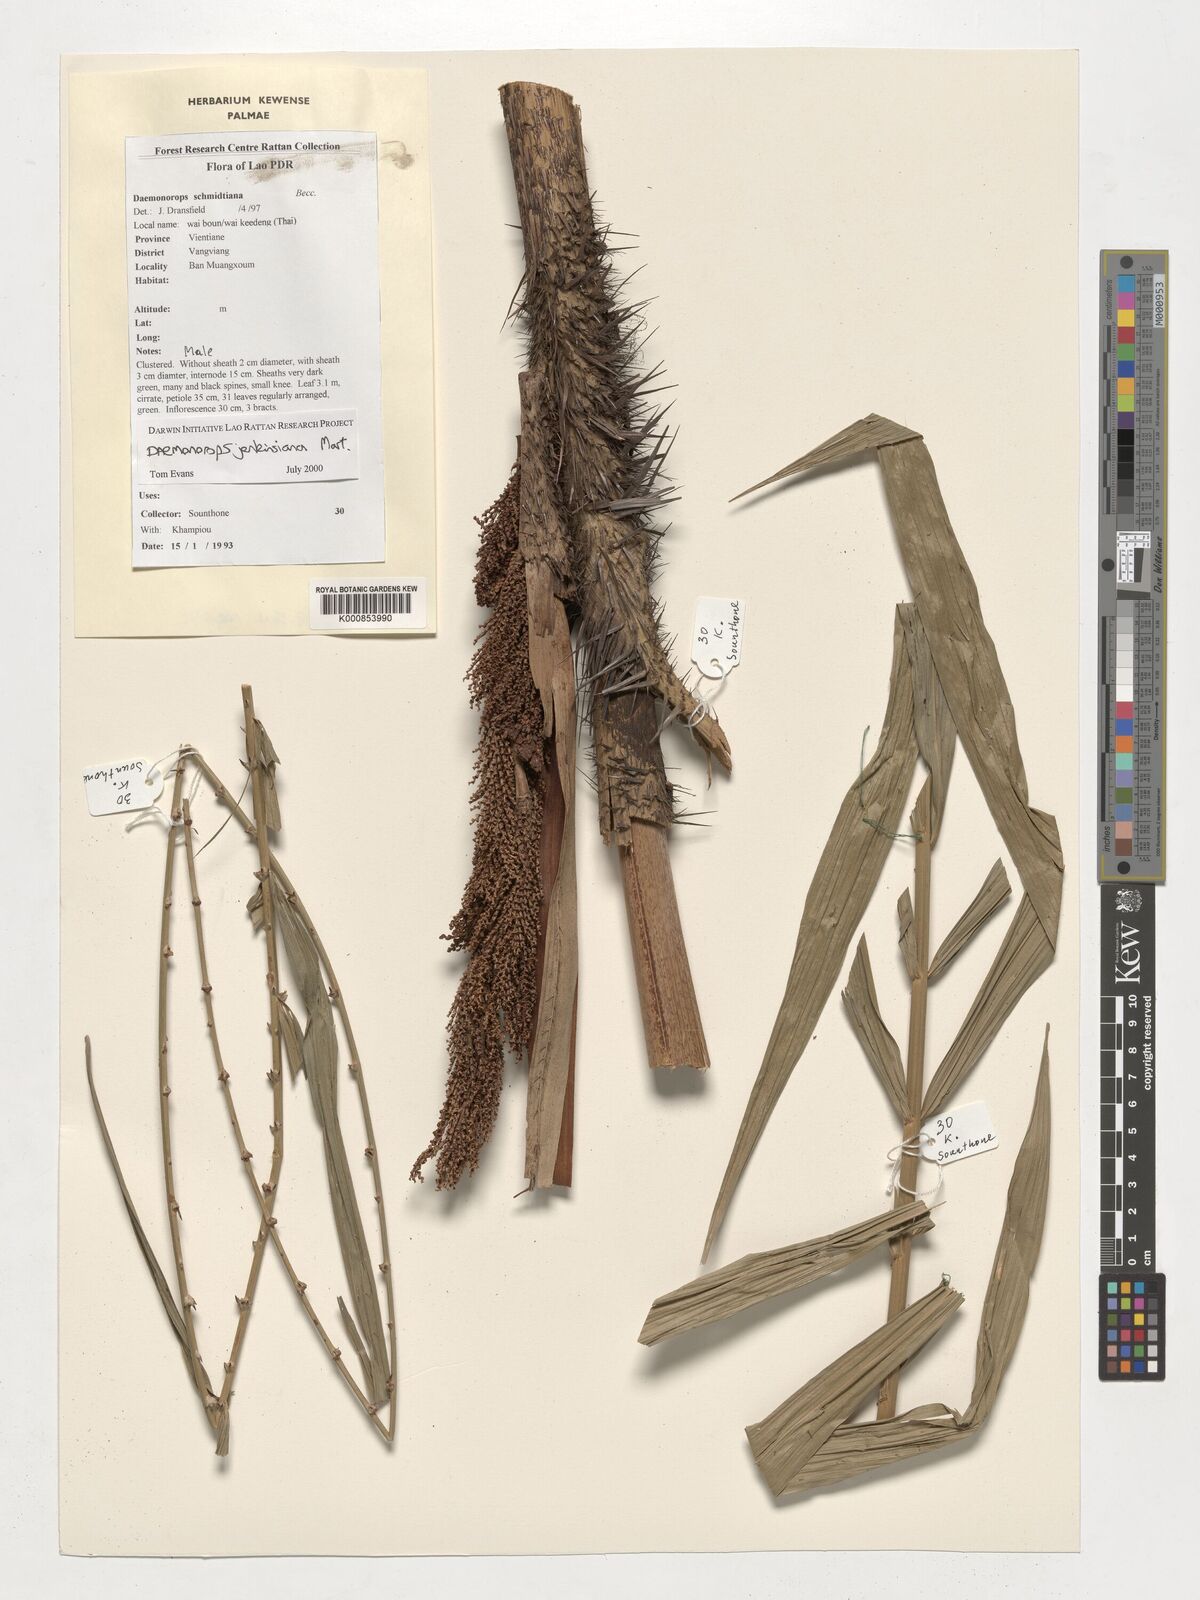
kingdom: Plantae
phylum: Tracheophyta
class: Liliopsida
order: Arecales
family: Arecaceae
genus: Calamus
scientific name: Calamus melanochaetes
